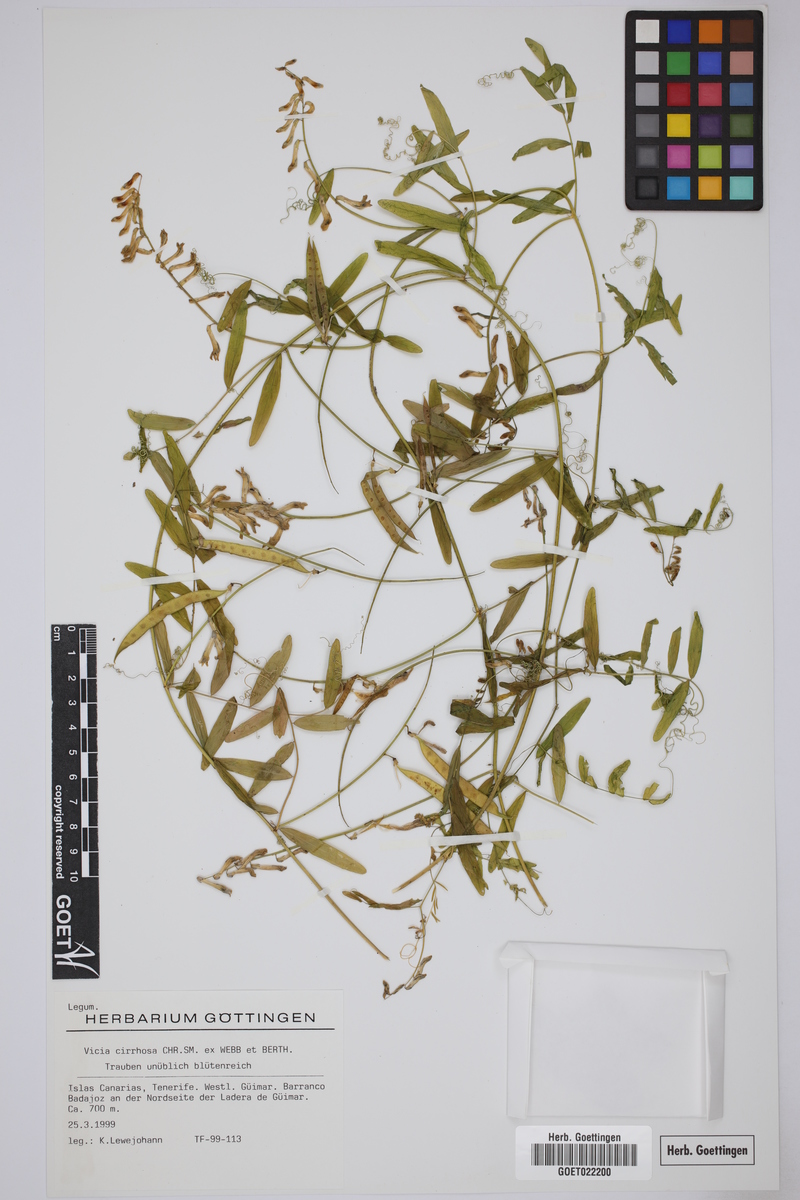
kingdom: Plantae
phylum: Tracheophyta
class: Magnoliopsida
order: Fabales
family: Fabaceae
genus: Vicia
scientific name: Vicia aphylla
